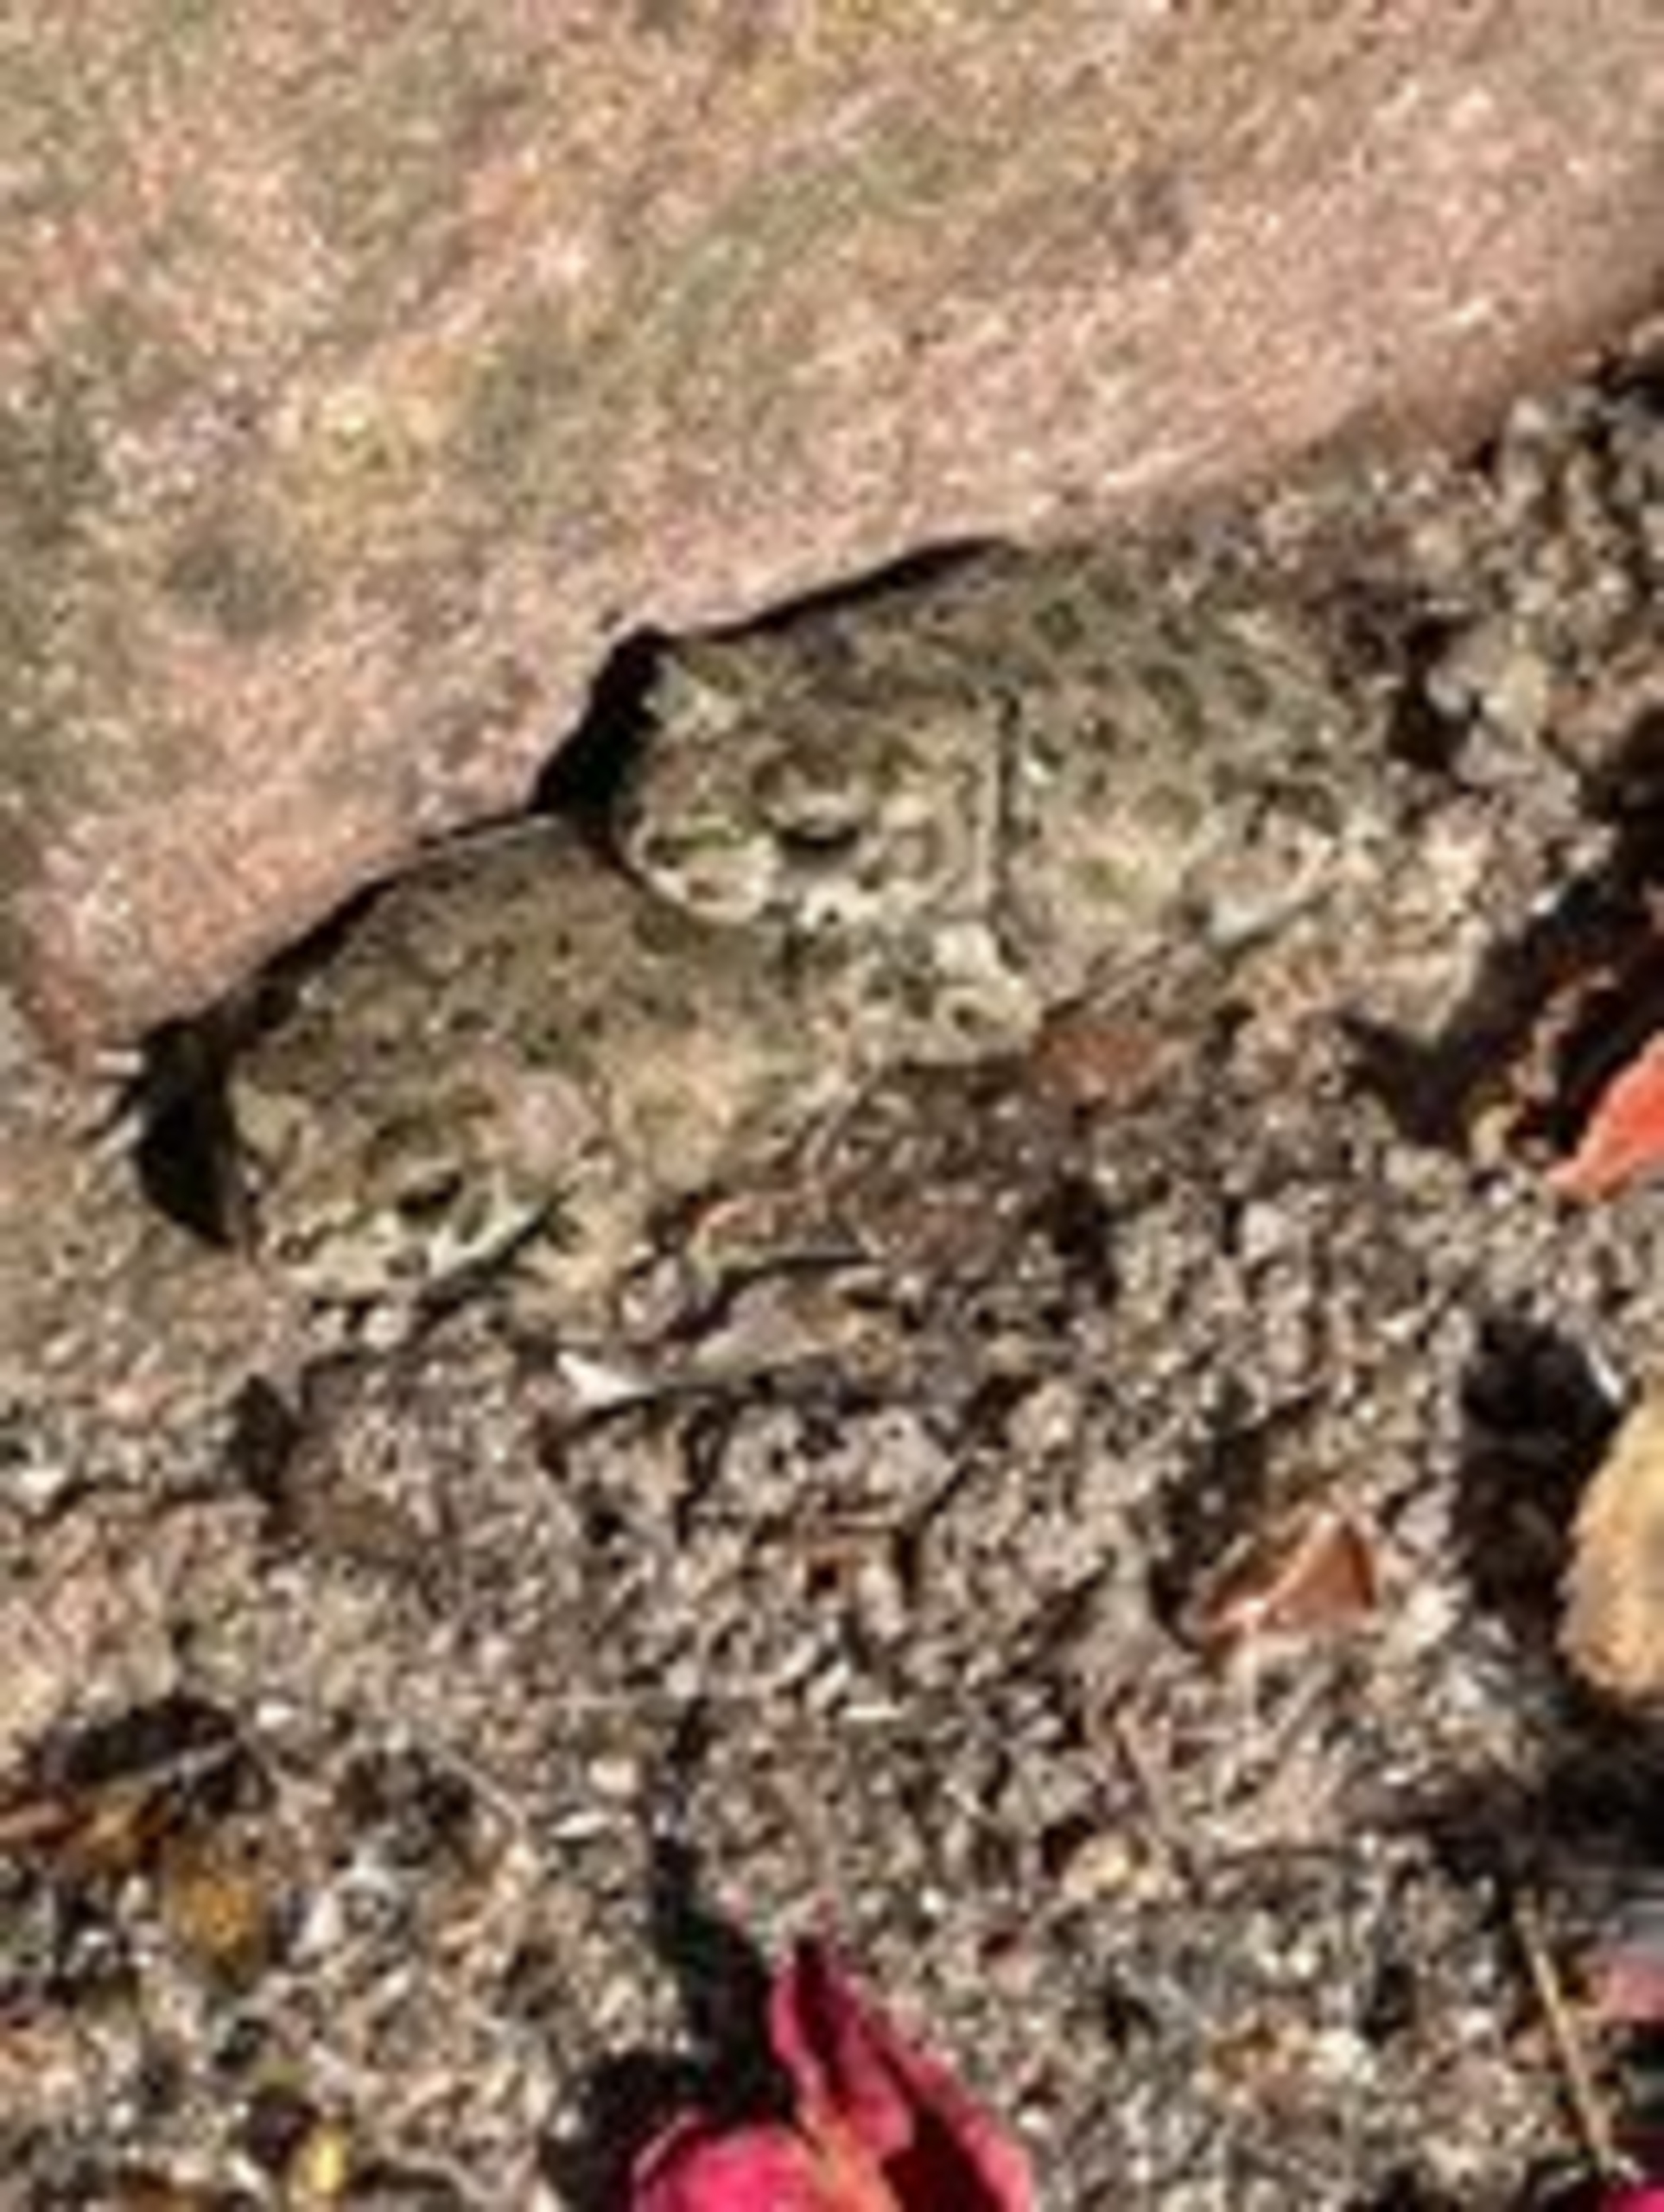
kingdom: Animalia
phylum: Chordata
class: Amphibia
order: Anura
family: Bufonidae
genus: Bufotes
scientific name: Bufotes viridis
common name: Grønbroget tudse
